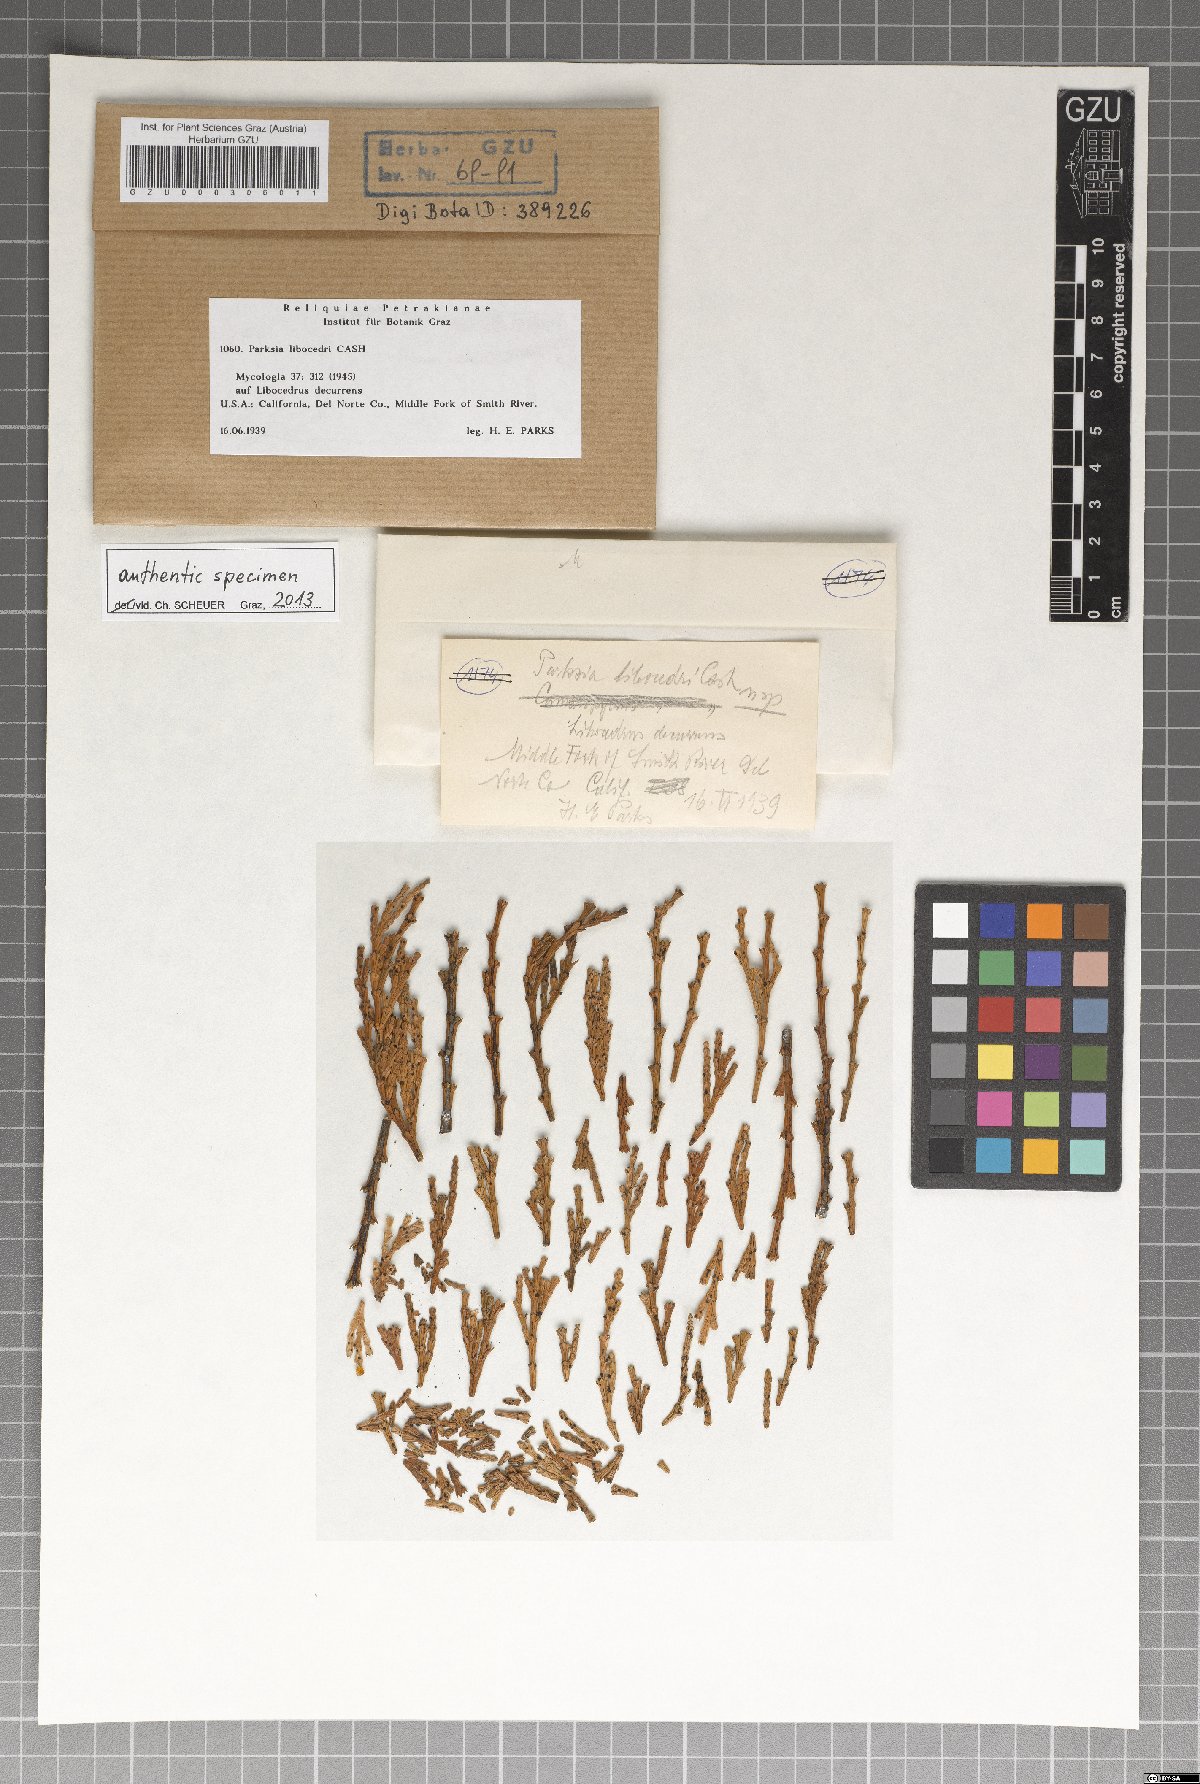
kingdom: Fungi
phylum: Ascomycota
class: Leotiomycetes
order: Helotiales
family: Gelatinodiscaceae
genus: Parksia
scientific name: Parksia libocedri
